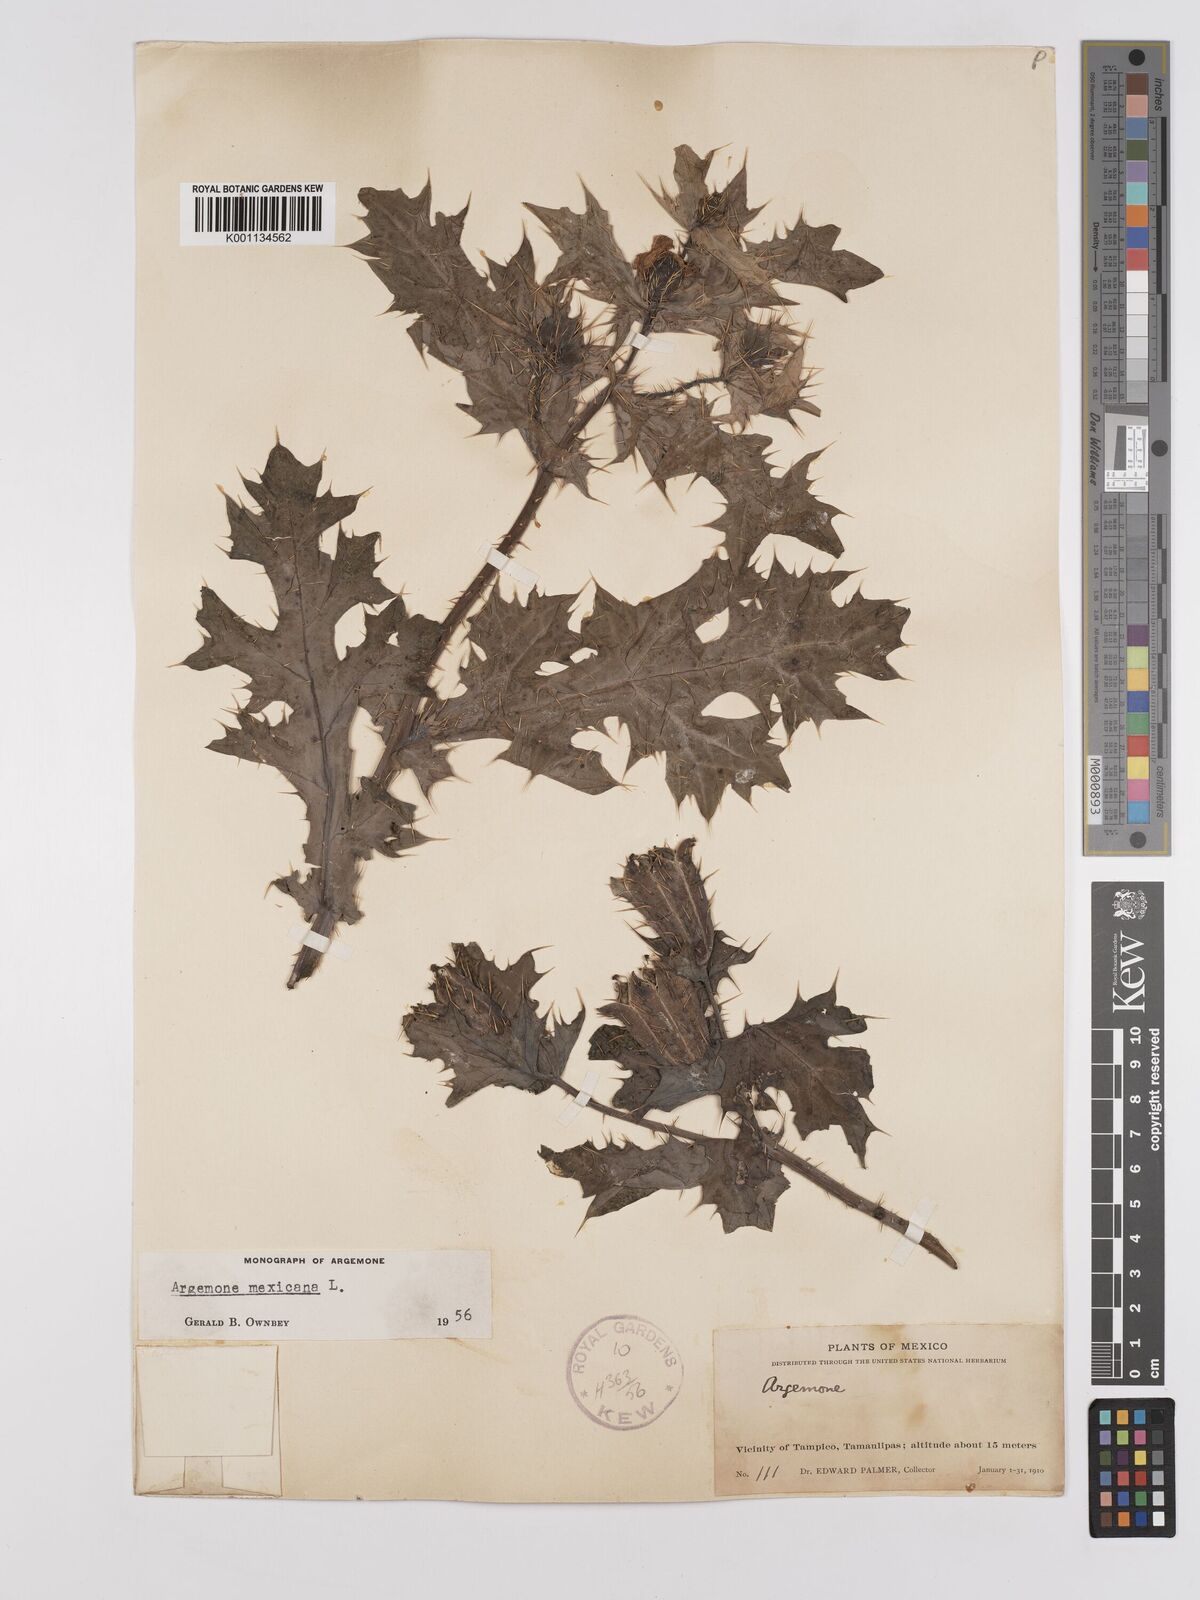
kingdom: Plantae
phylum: Tracheophyta
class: Magnoliopsida
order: Ranunculales
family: Papaveraceae
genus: Argemone
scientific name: Argemone mexicana
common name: Mexican poppy
